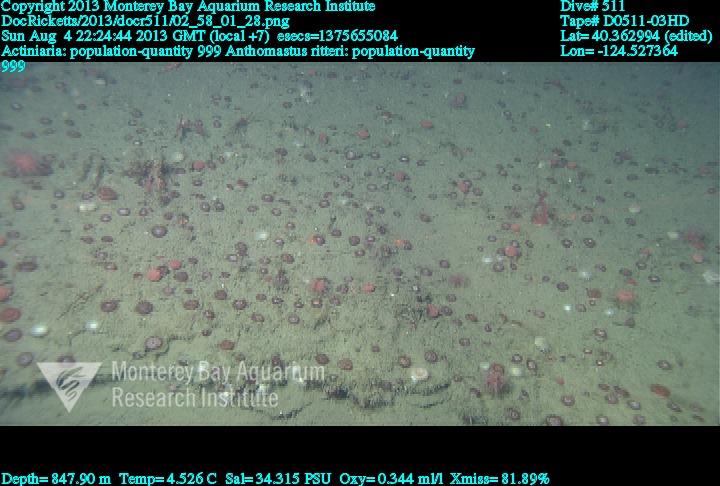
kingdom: Animalia
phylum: Cnidaria
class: Anthozoa
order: Scleralcyonacea
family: Coralliidae
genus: Heteropolypus
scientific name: Heteropolypus ritteri
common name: Ritter's soft coral
